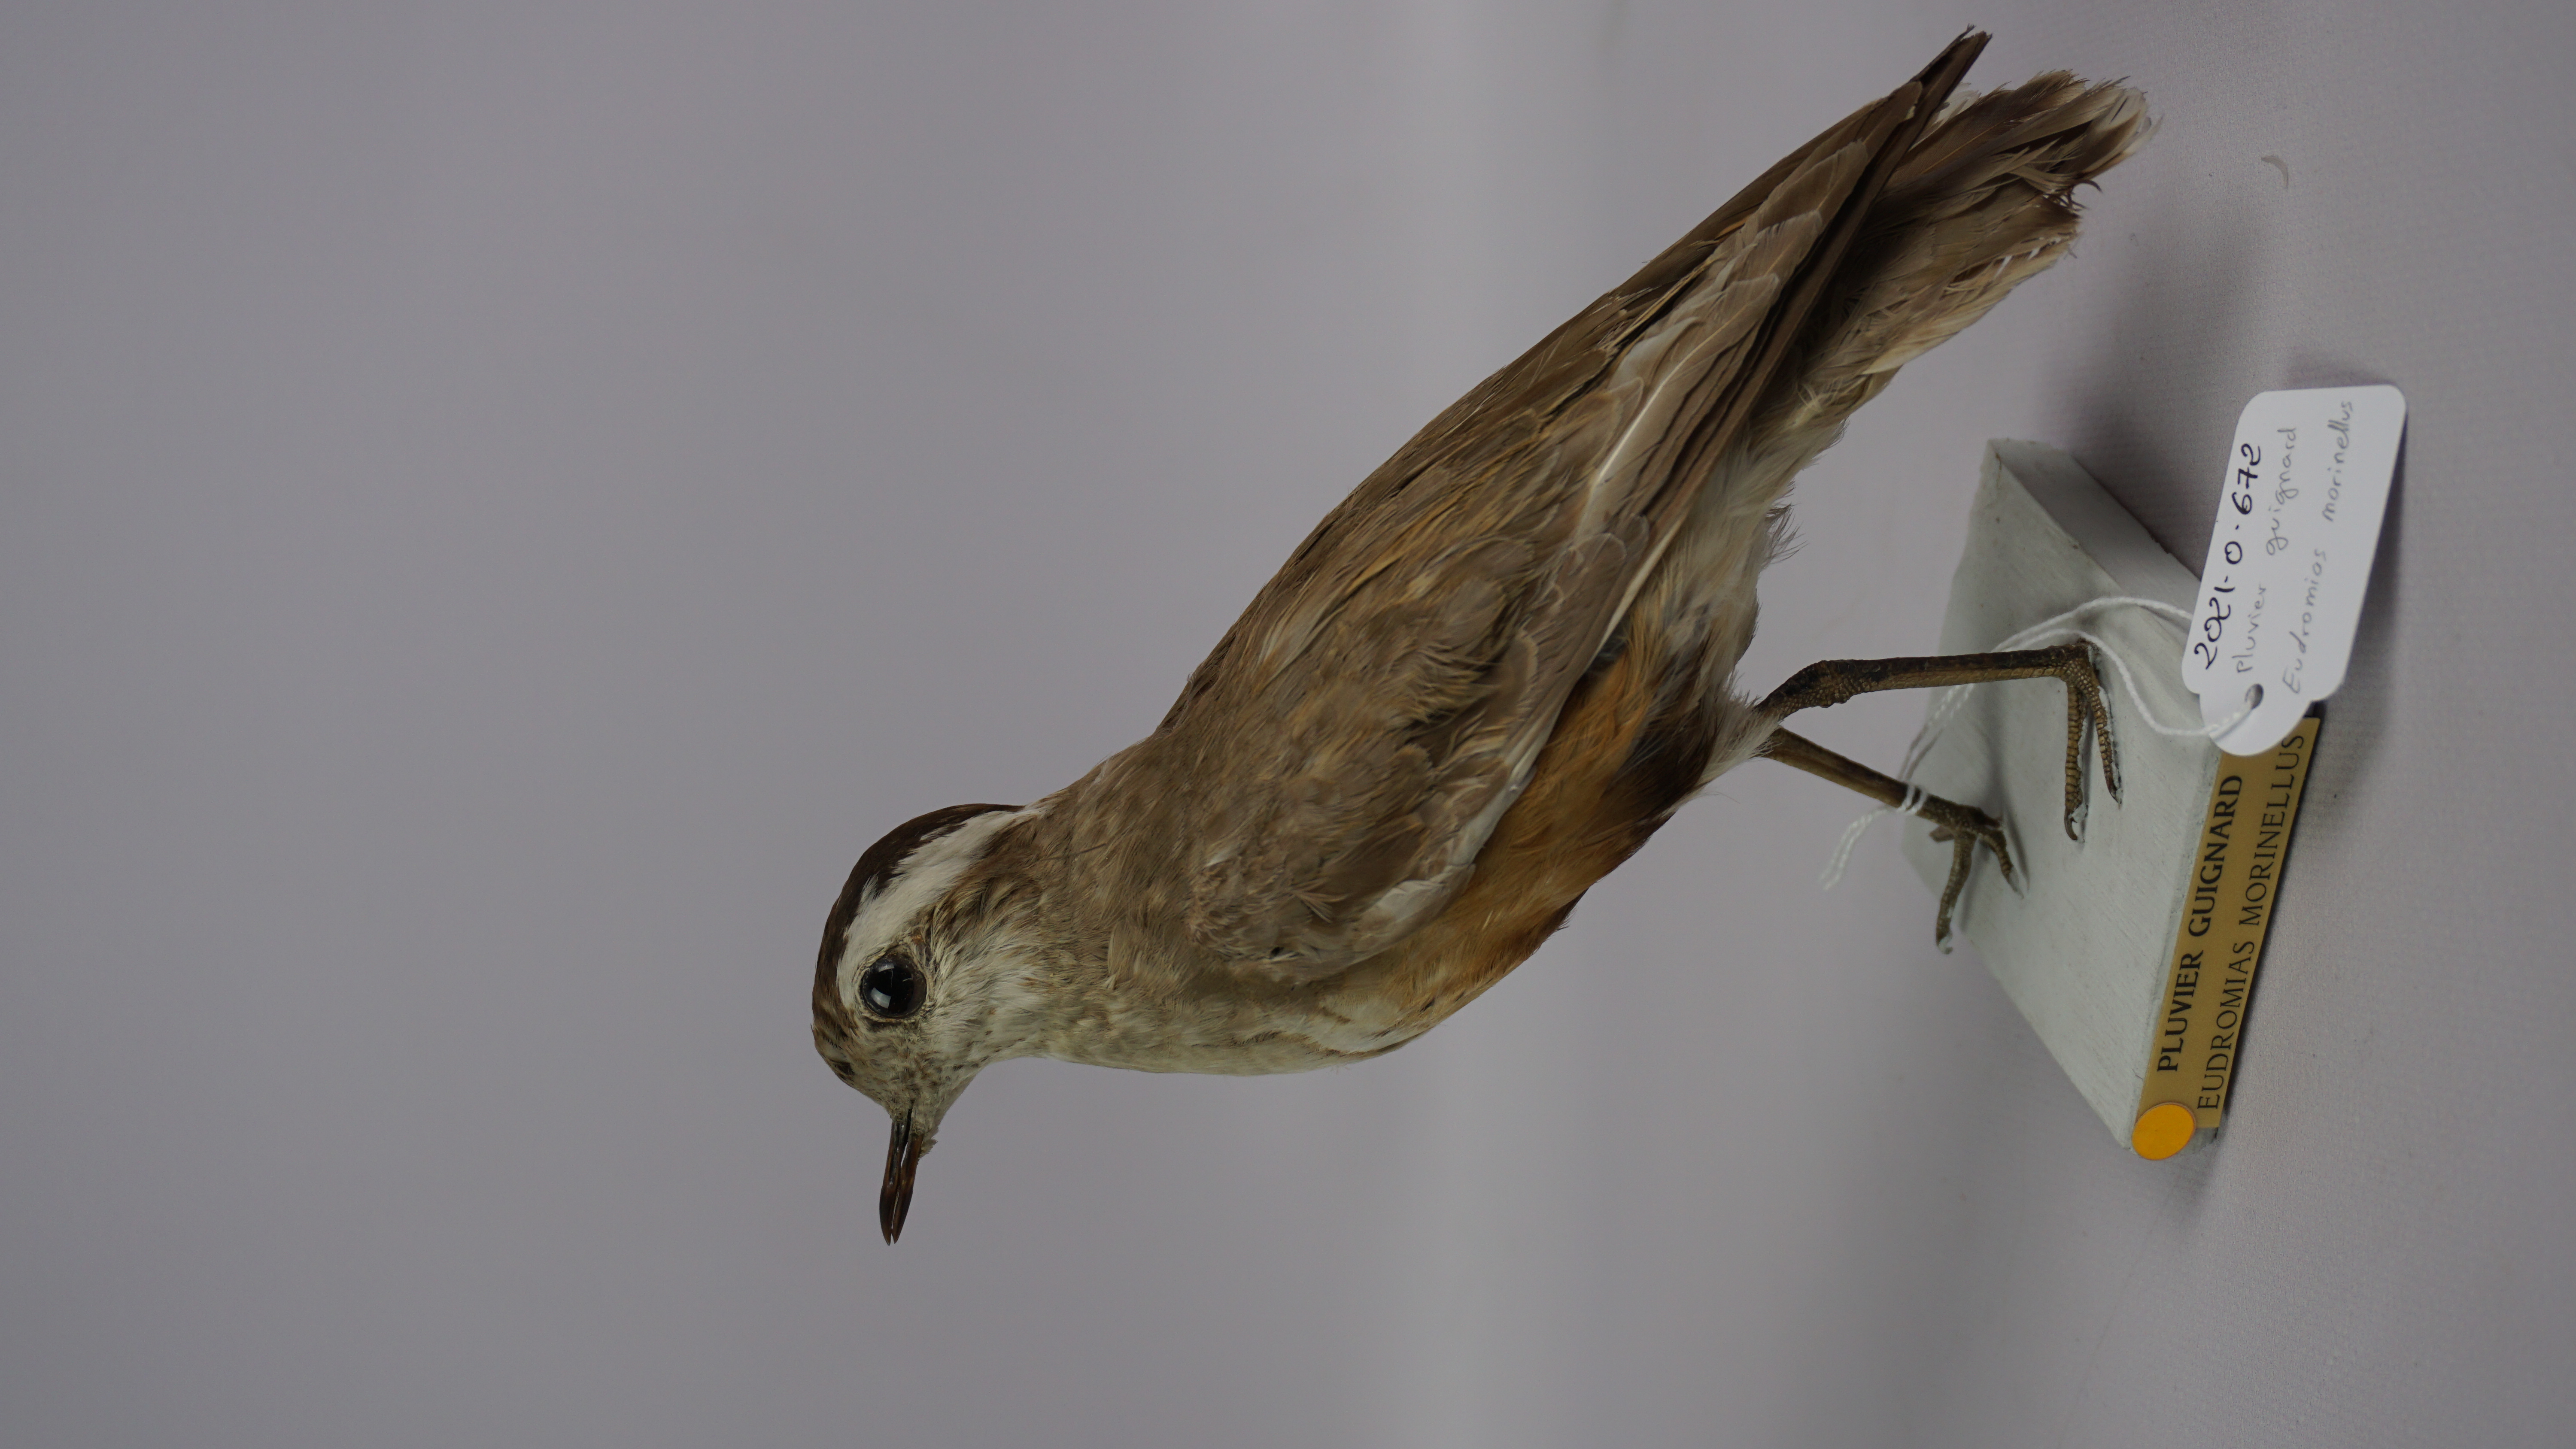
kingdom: Animalia
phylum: Chordata
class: Aves
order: Charadriiformes
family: Charadriidae
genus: Charadrius
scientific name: Charadrius morinellus
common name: Eurasian dotterel
